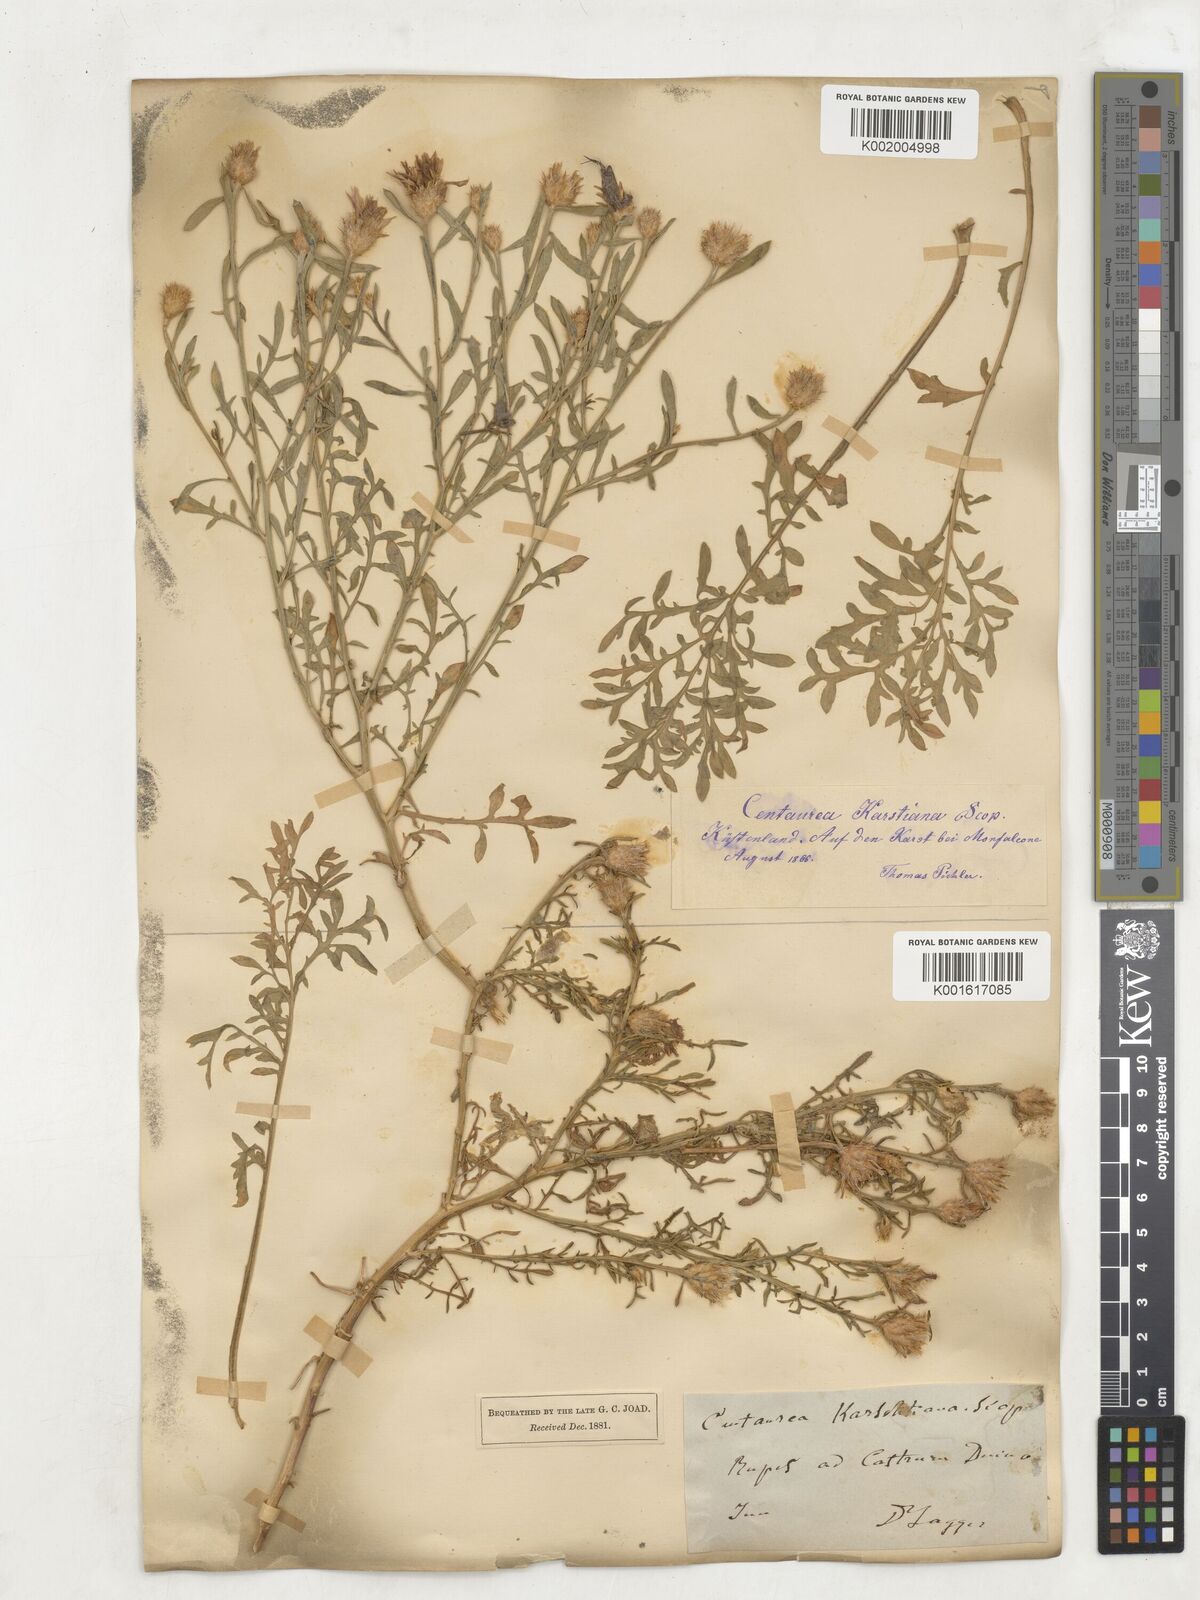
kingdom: Plantae
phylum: Tracheophyta
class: Magnoliopsida
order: Asterales
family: Asteraceae
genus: Centaurea
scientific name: Centaurea kartschiana
